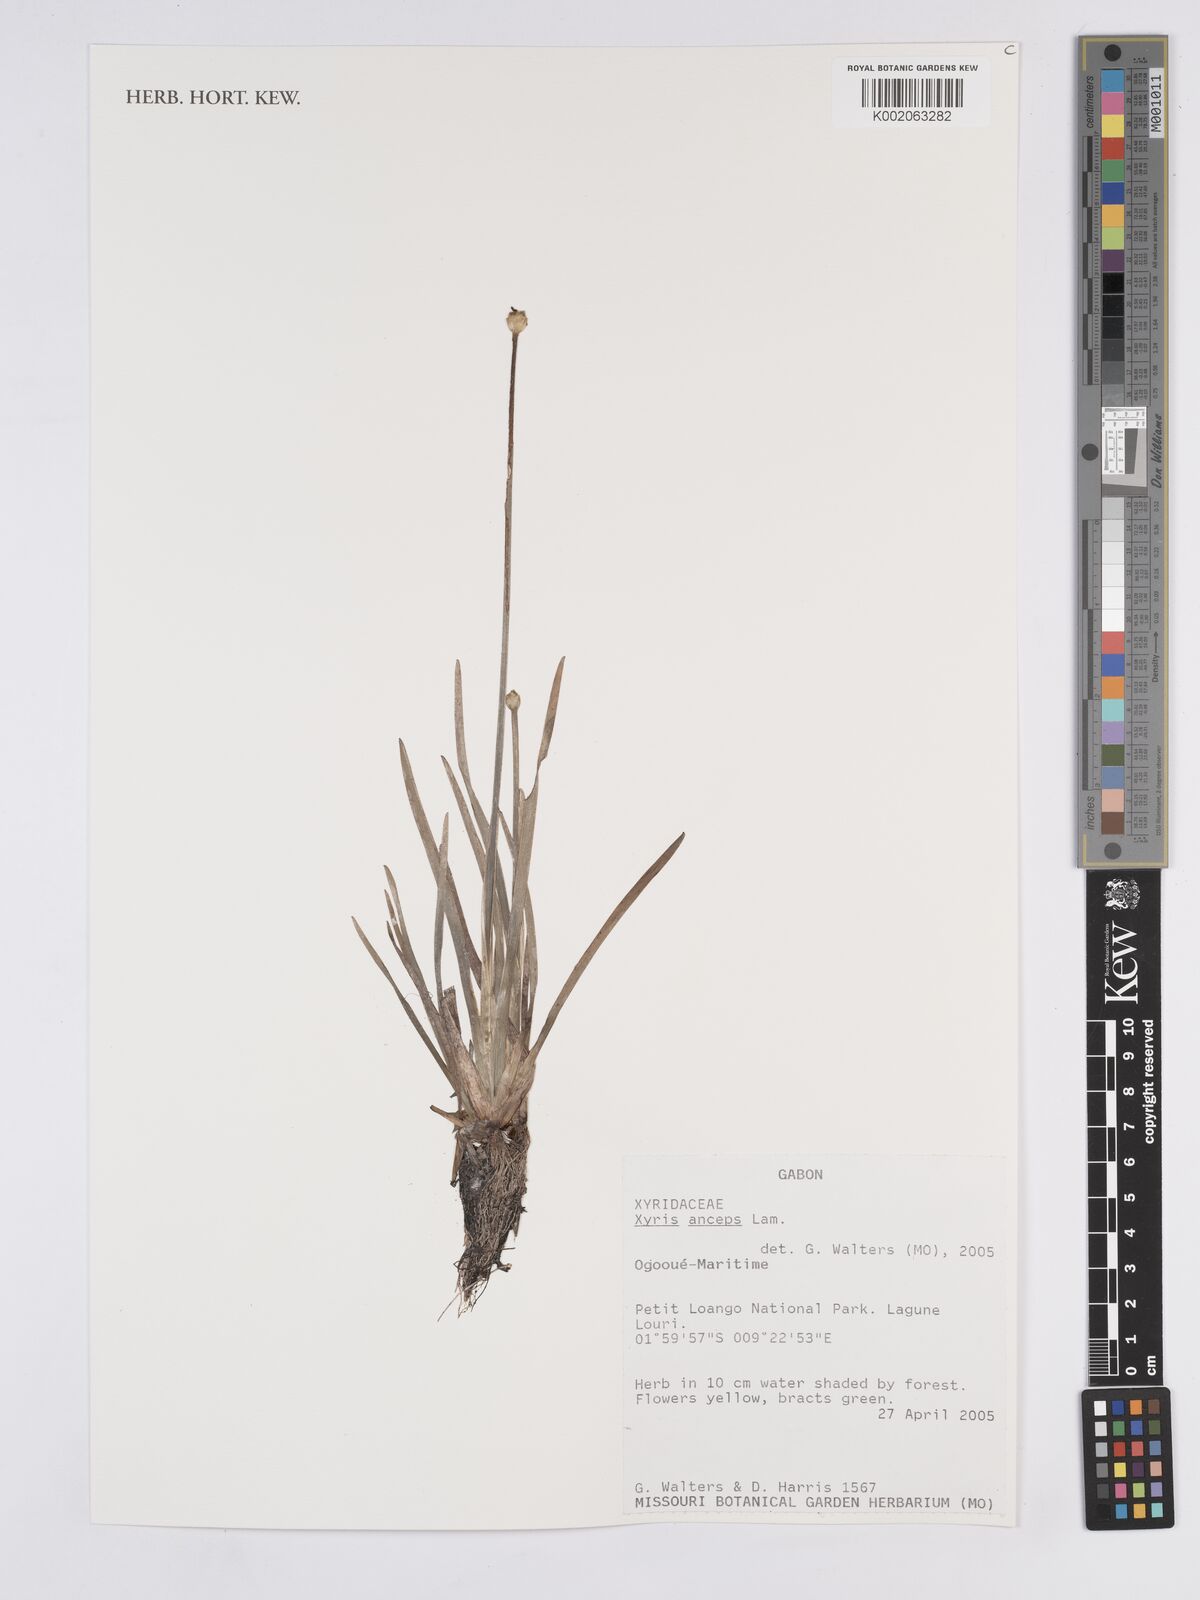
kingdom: Plantae
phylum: Tracheophyta
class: Liliopsida
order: Poales
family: Xyridaceae
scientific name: Xyridaceae
